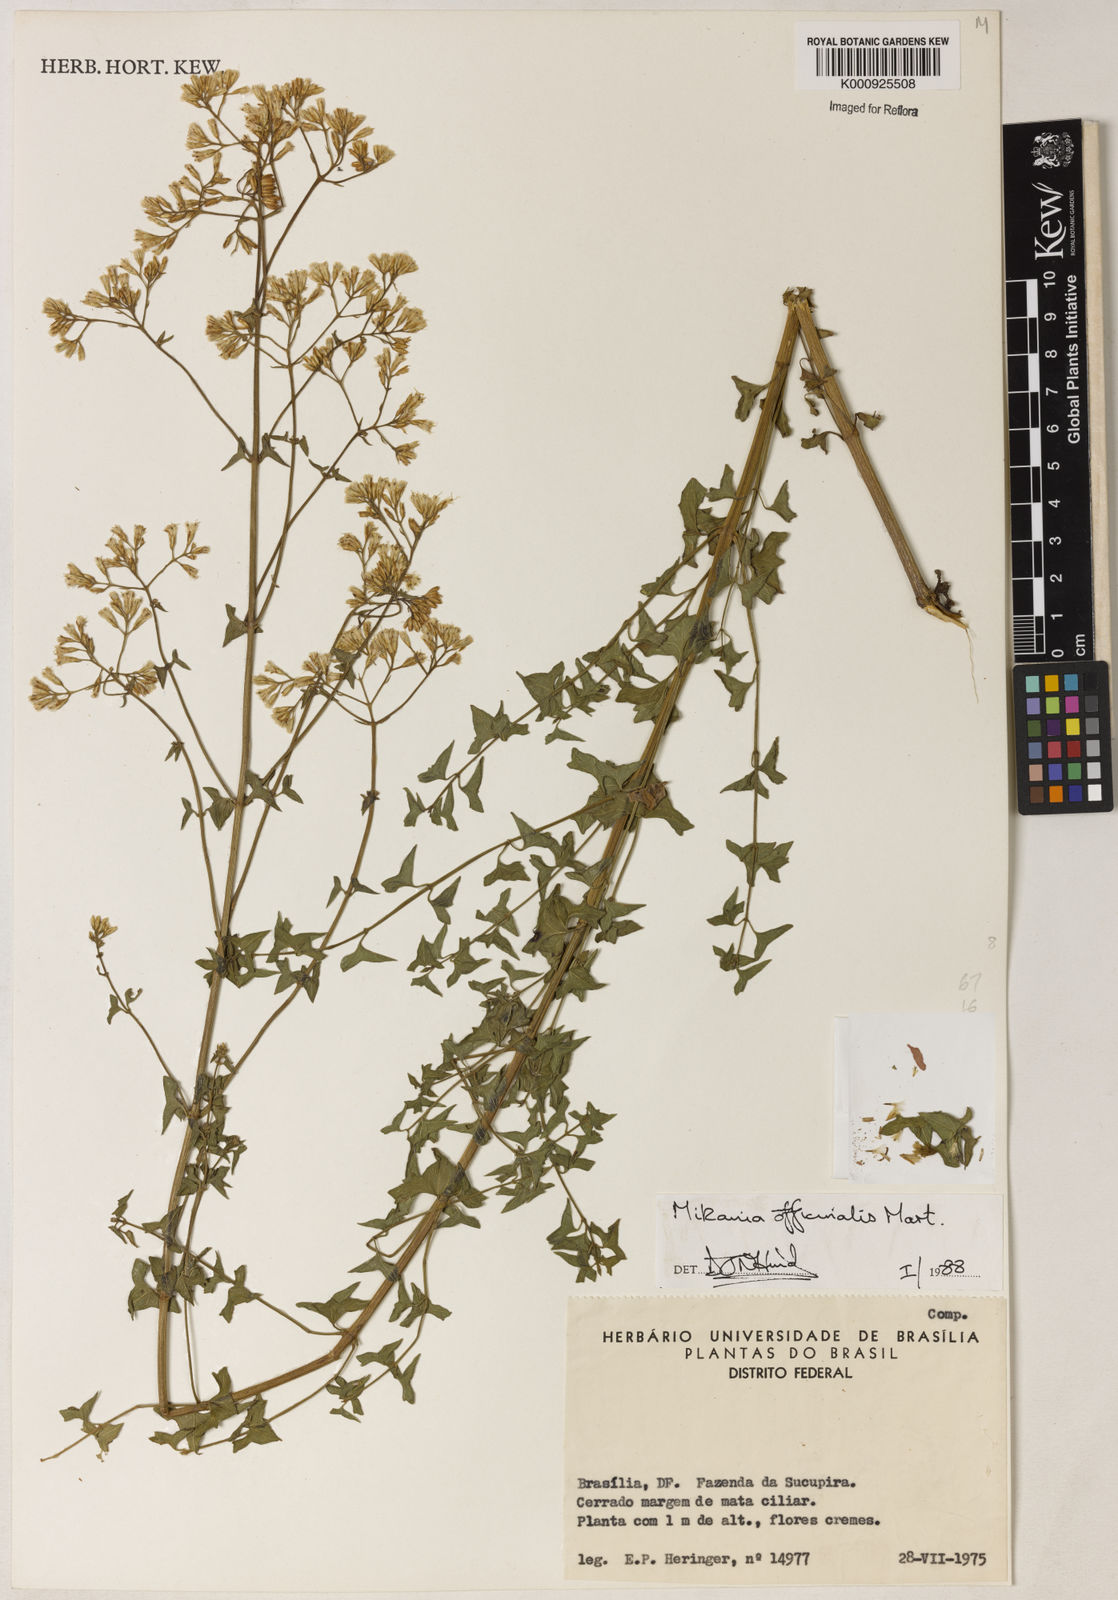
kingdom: Plantae
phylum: Tracheophyta
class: Magnoliopsida
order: Asterales
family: Asteraceae
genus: Mikania
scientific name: Mikania officinalis
